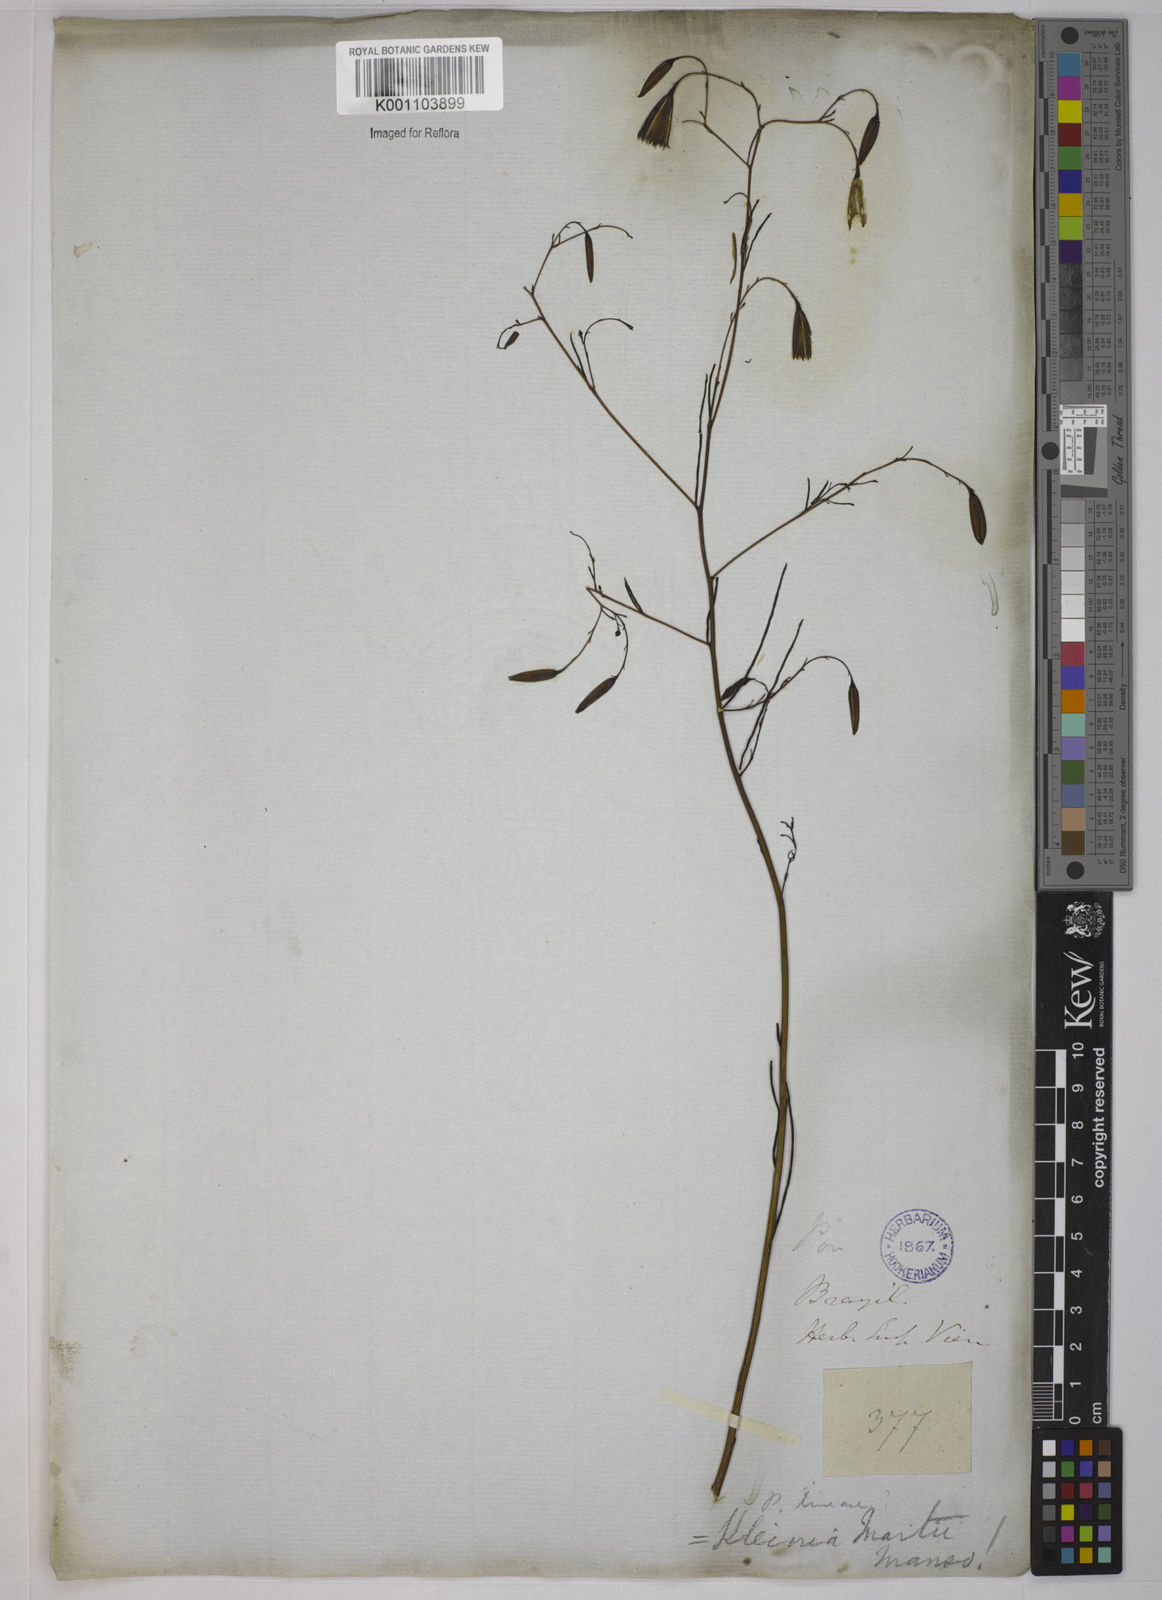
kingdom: Plantae
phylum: Tracheophyta
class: Magnoliopsida
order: Asterales
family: Asteraceae
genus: Porophyllum
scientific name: Porophyllum lanceolatum
